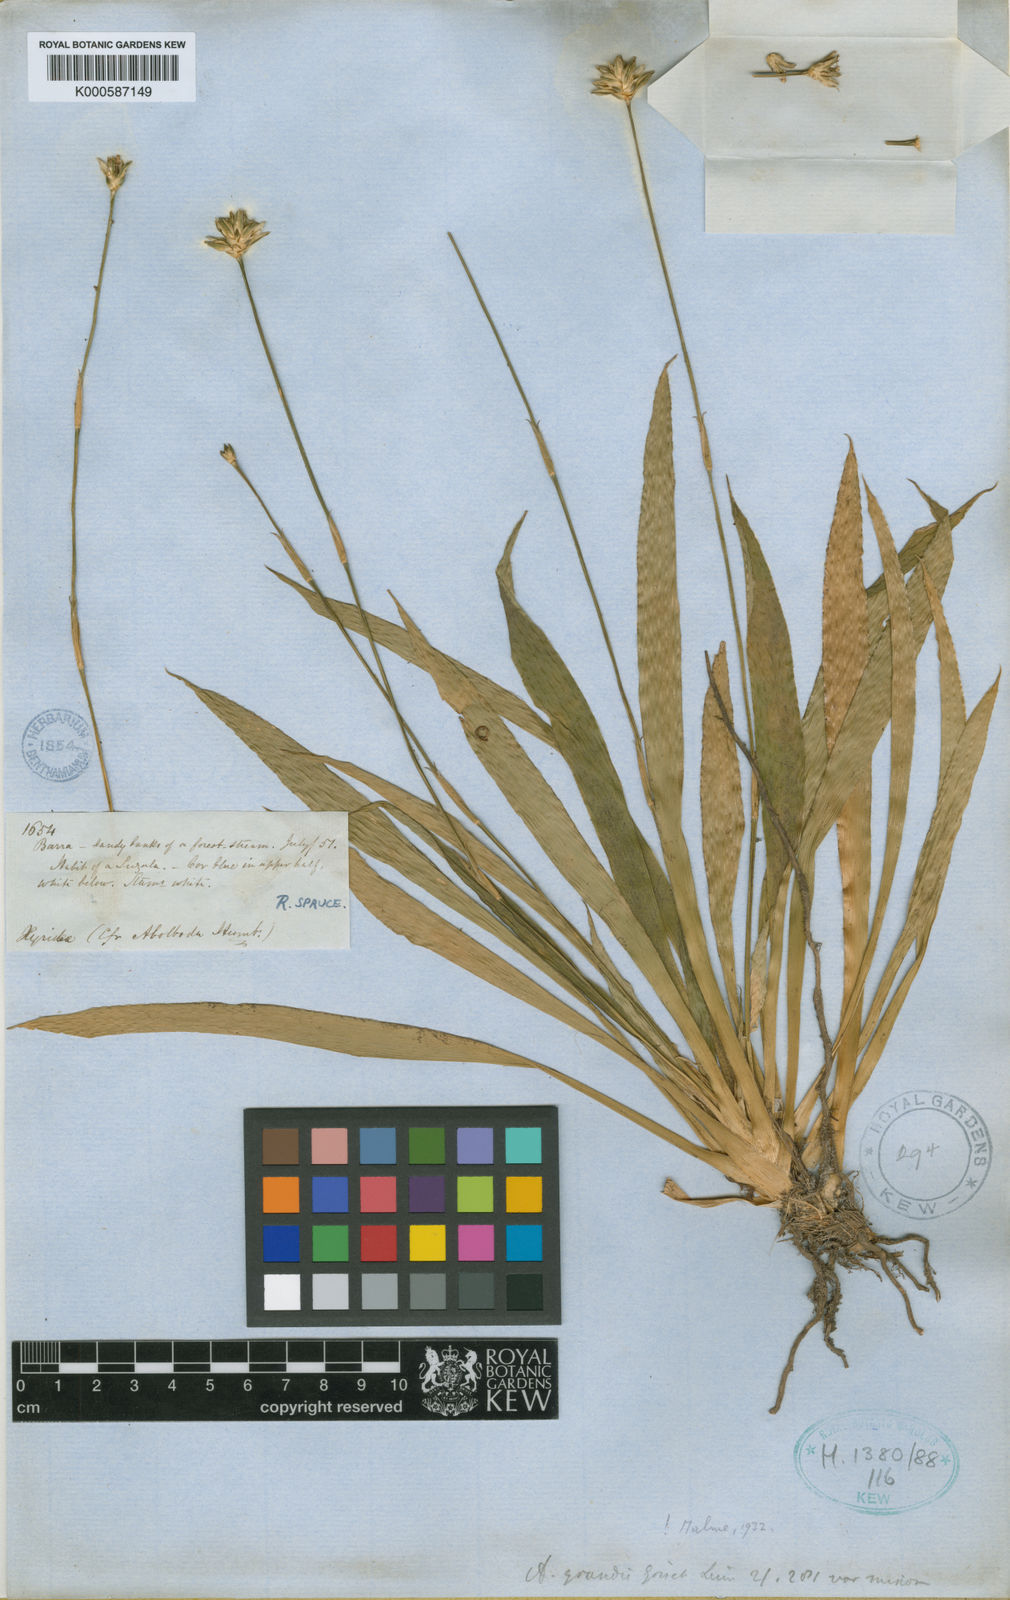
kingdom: Plantae
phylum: Tracheophyta
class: Liliopsida
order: Poales
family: Xyridaceae
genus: Abolboda
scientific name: Abolboda grandis
